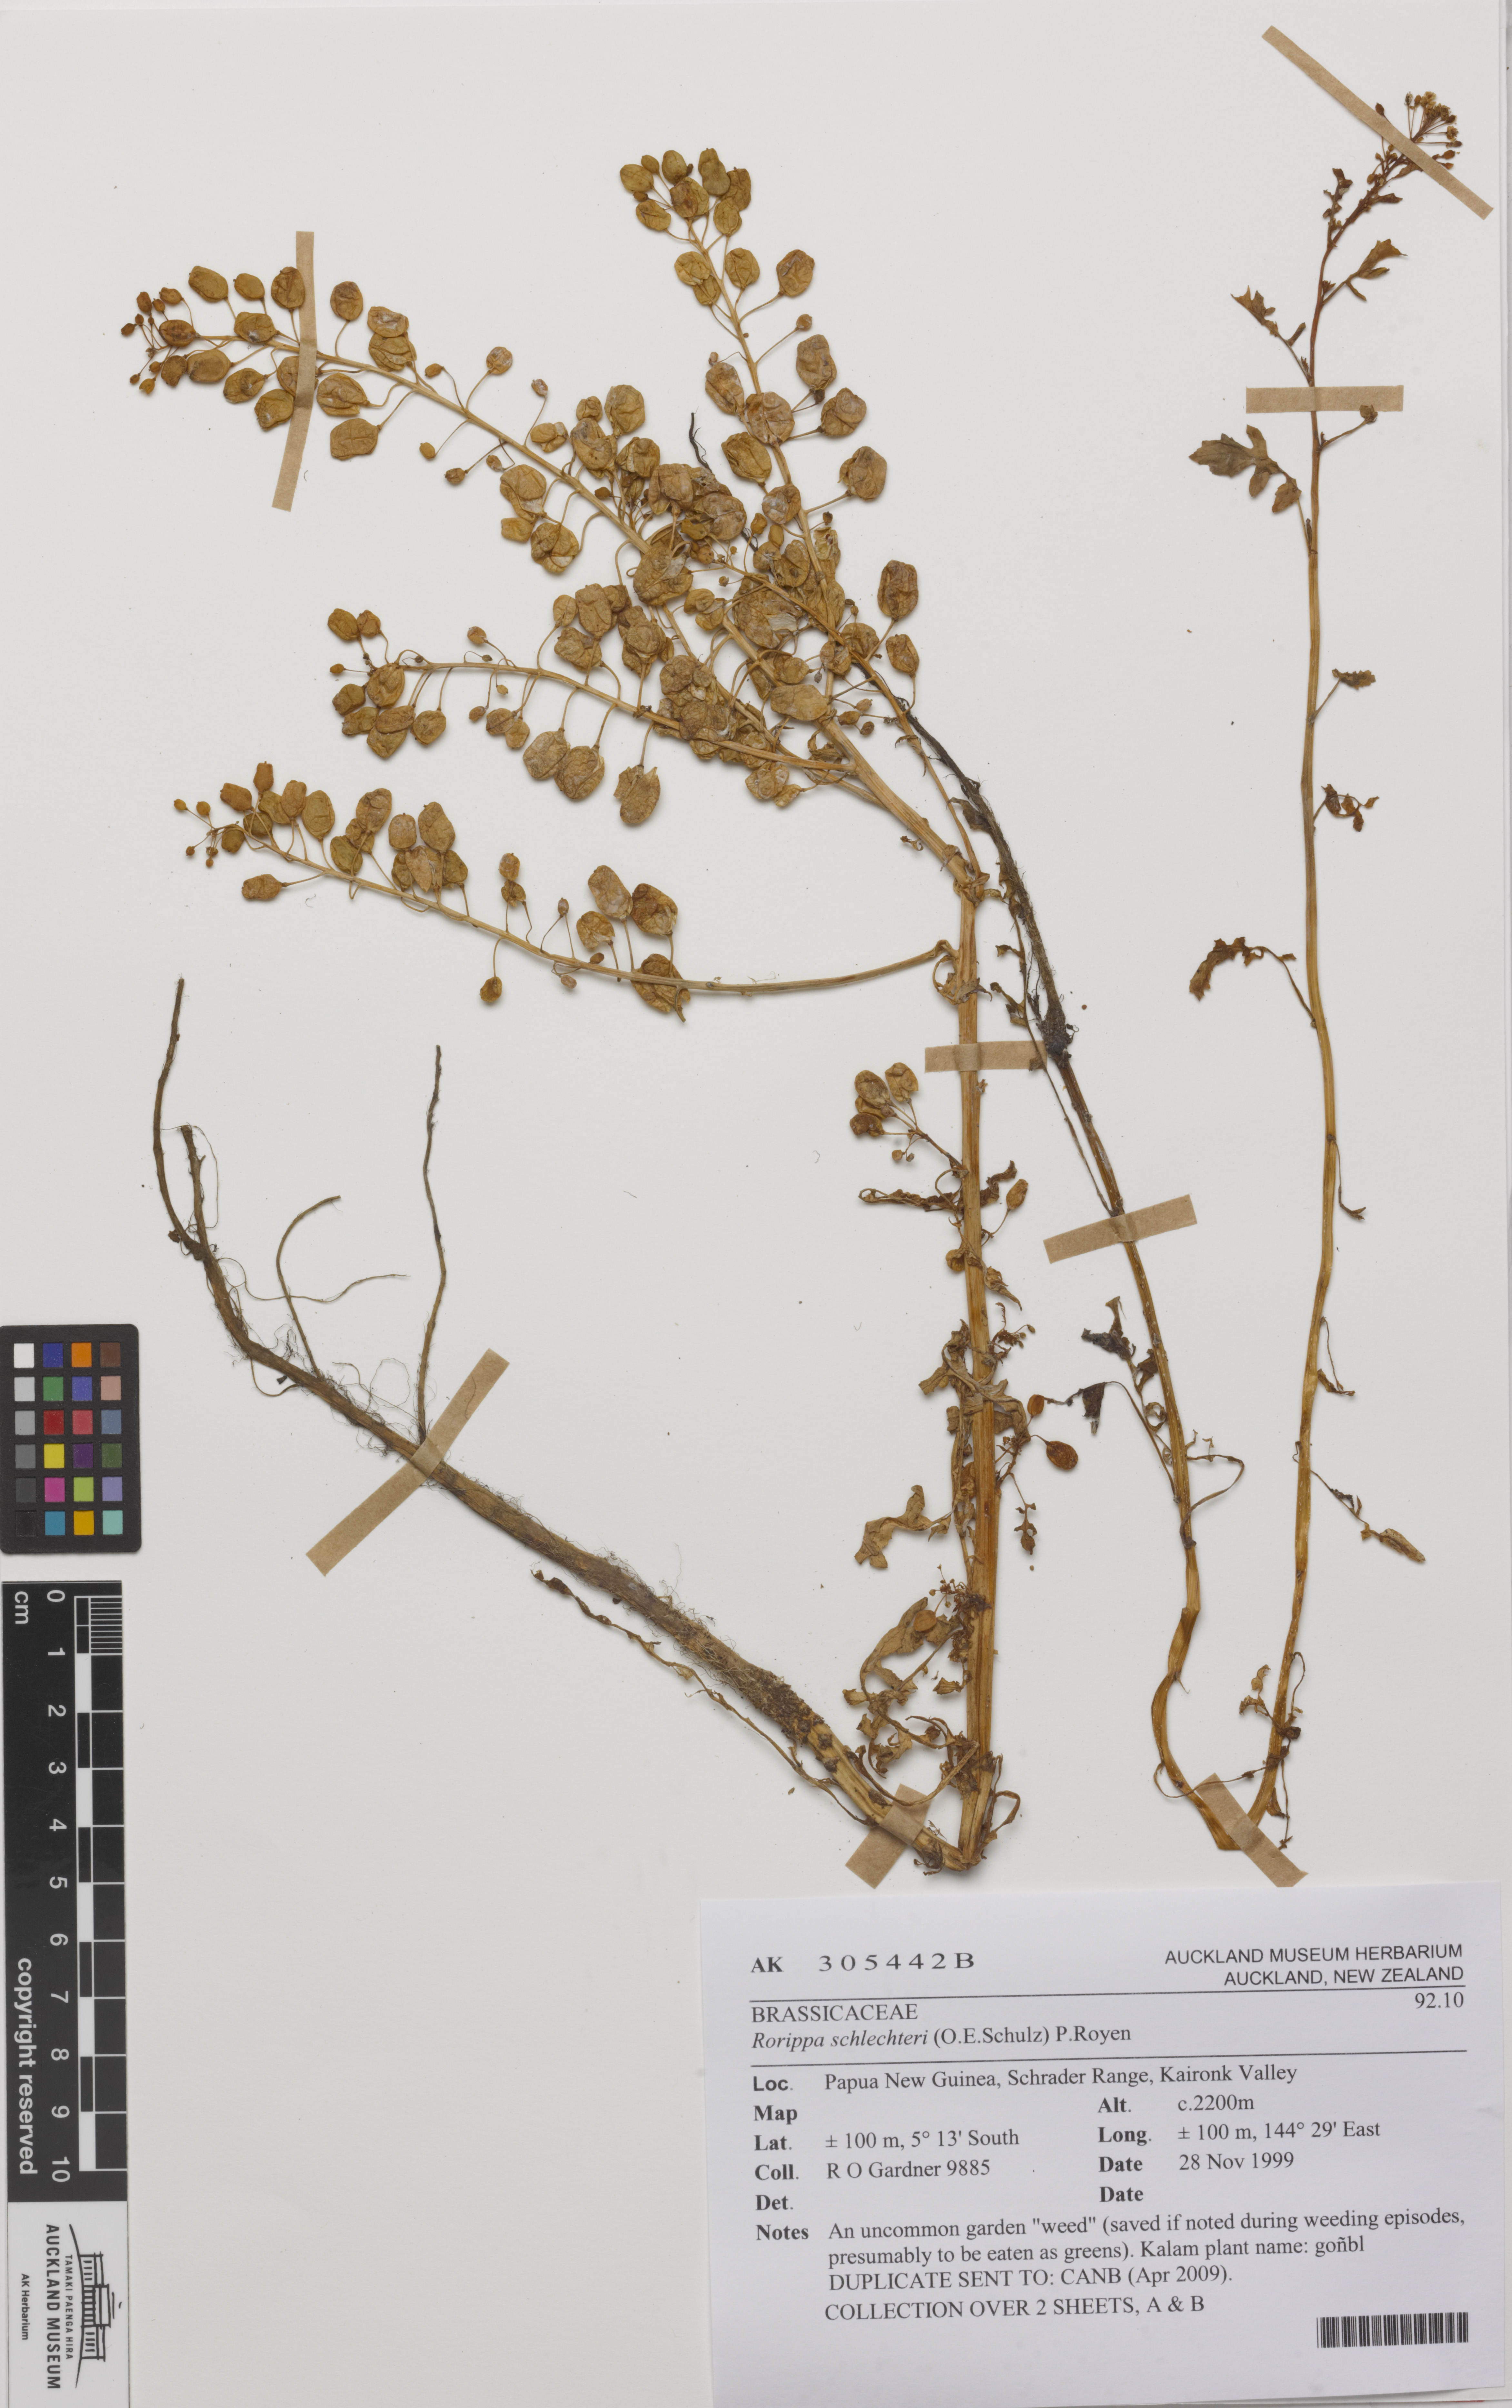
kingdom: Plantae
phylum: Tracheophyta
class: Magnoliopsida
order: Brassicales
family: Brassicaceae
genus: Rorippa
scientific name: Rorippa schlechteri
